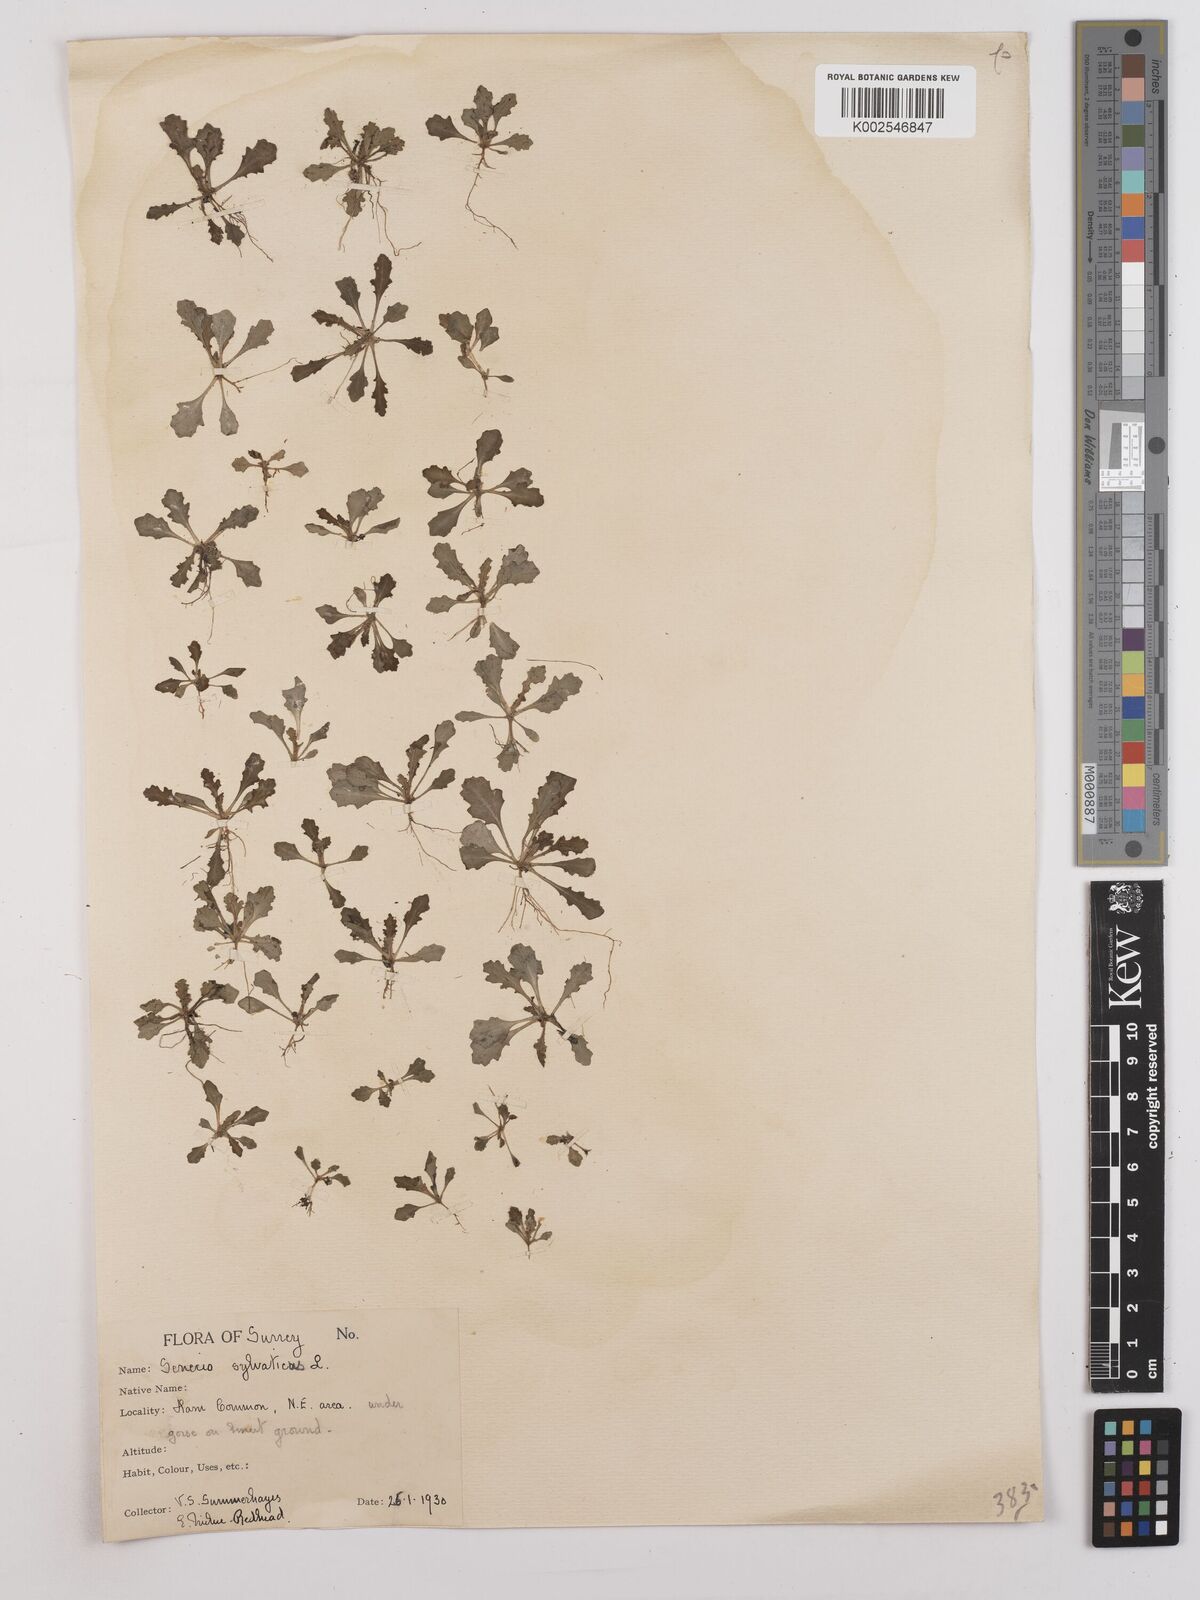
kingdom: Plantae
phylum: Tracheophyta
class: Magnoliopsida
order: Asterales
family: Asteraceae
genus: Senecio
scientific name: Senecio sylvaticus
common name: Woodland ragwort
